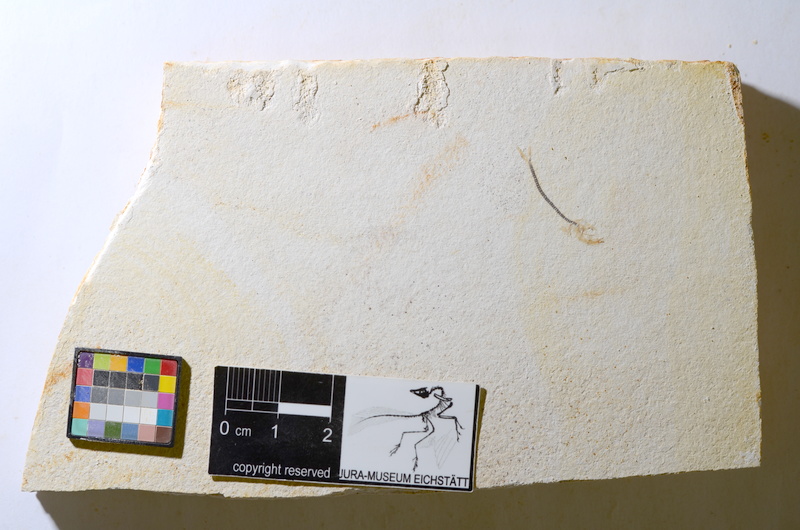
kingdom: Animalia
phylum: Chordata
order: Salmoniformes
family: Orthogonikleithridae
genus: Orthogonikleithrus
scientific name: Orthogonikleithrus hoelli
